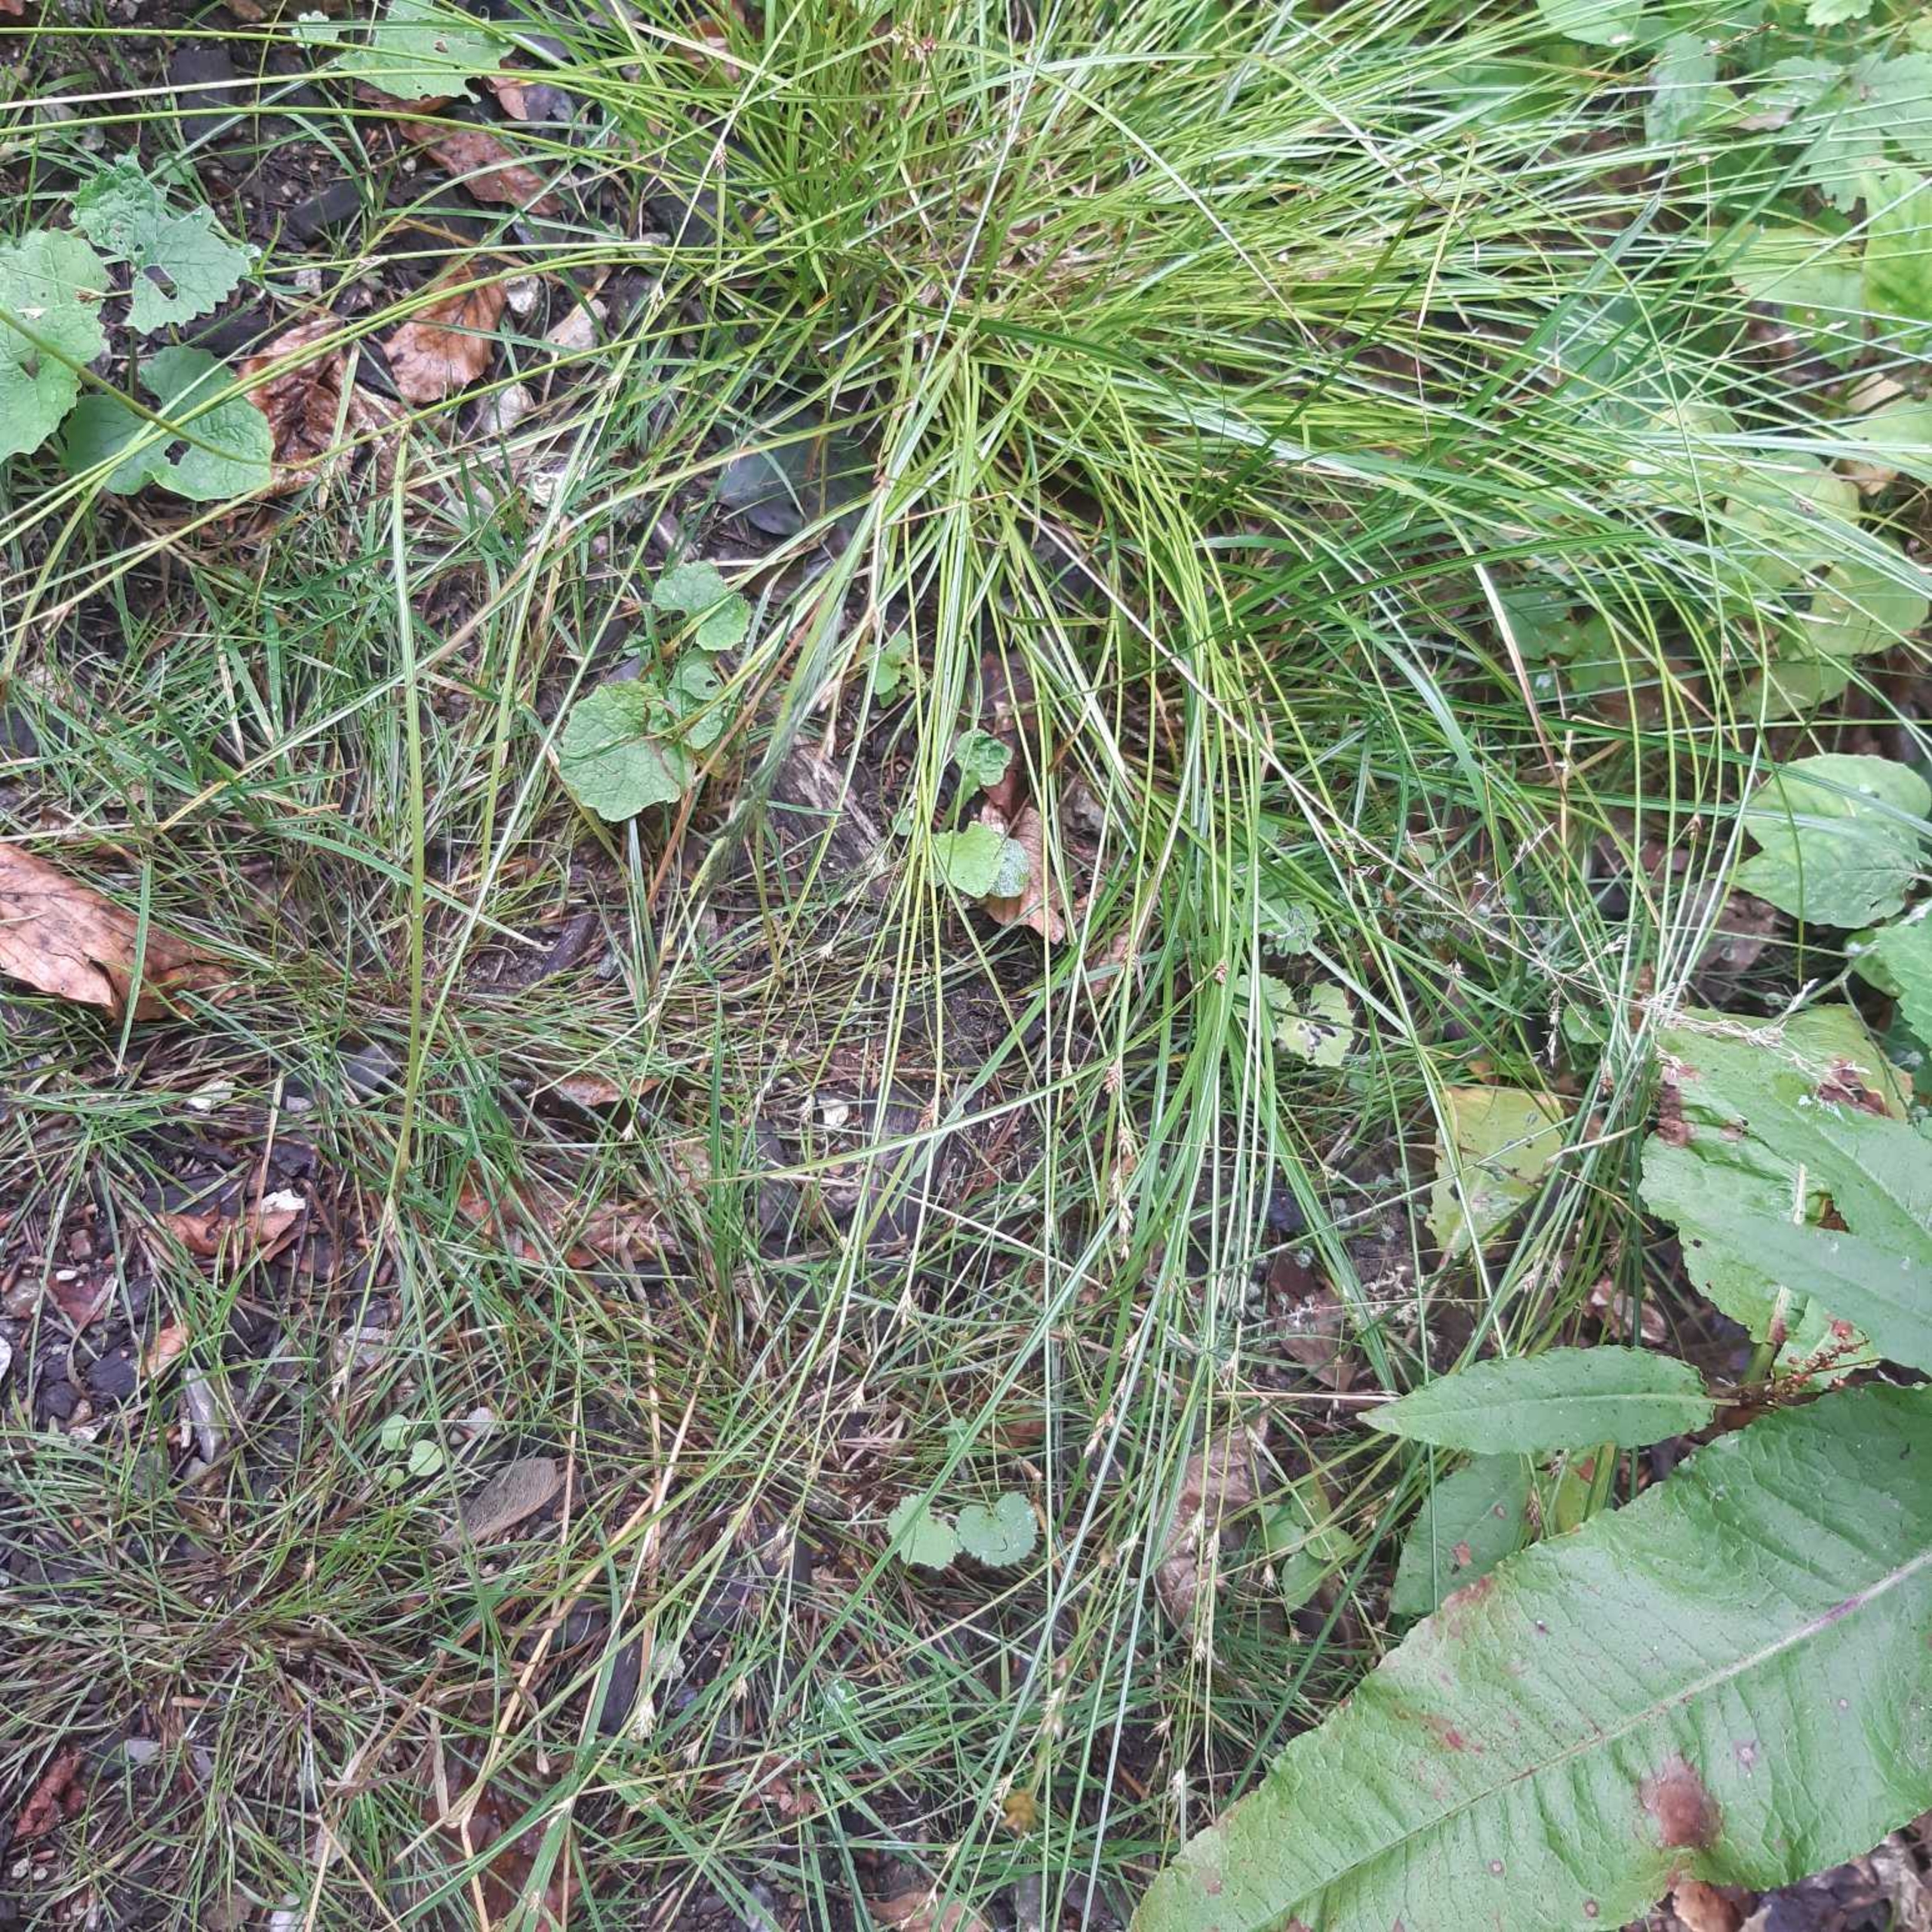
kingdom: Plantae
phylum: Tracheophyta
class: Liliopsida
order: Poales
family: Cyperaceae
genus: Carex
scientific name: Carex remota
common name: Akselblomstret star
